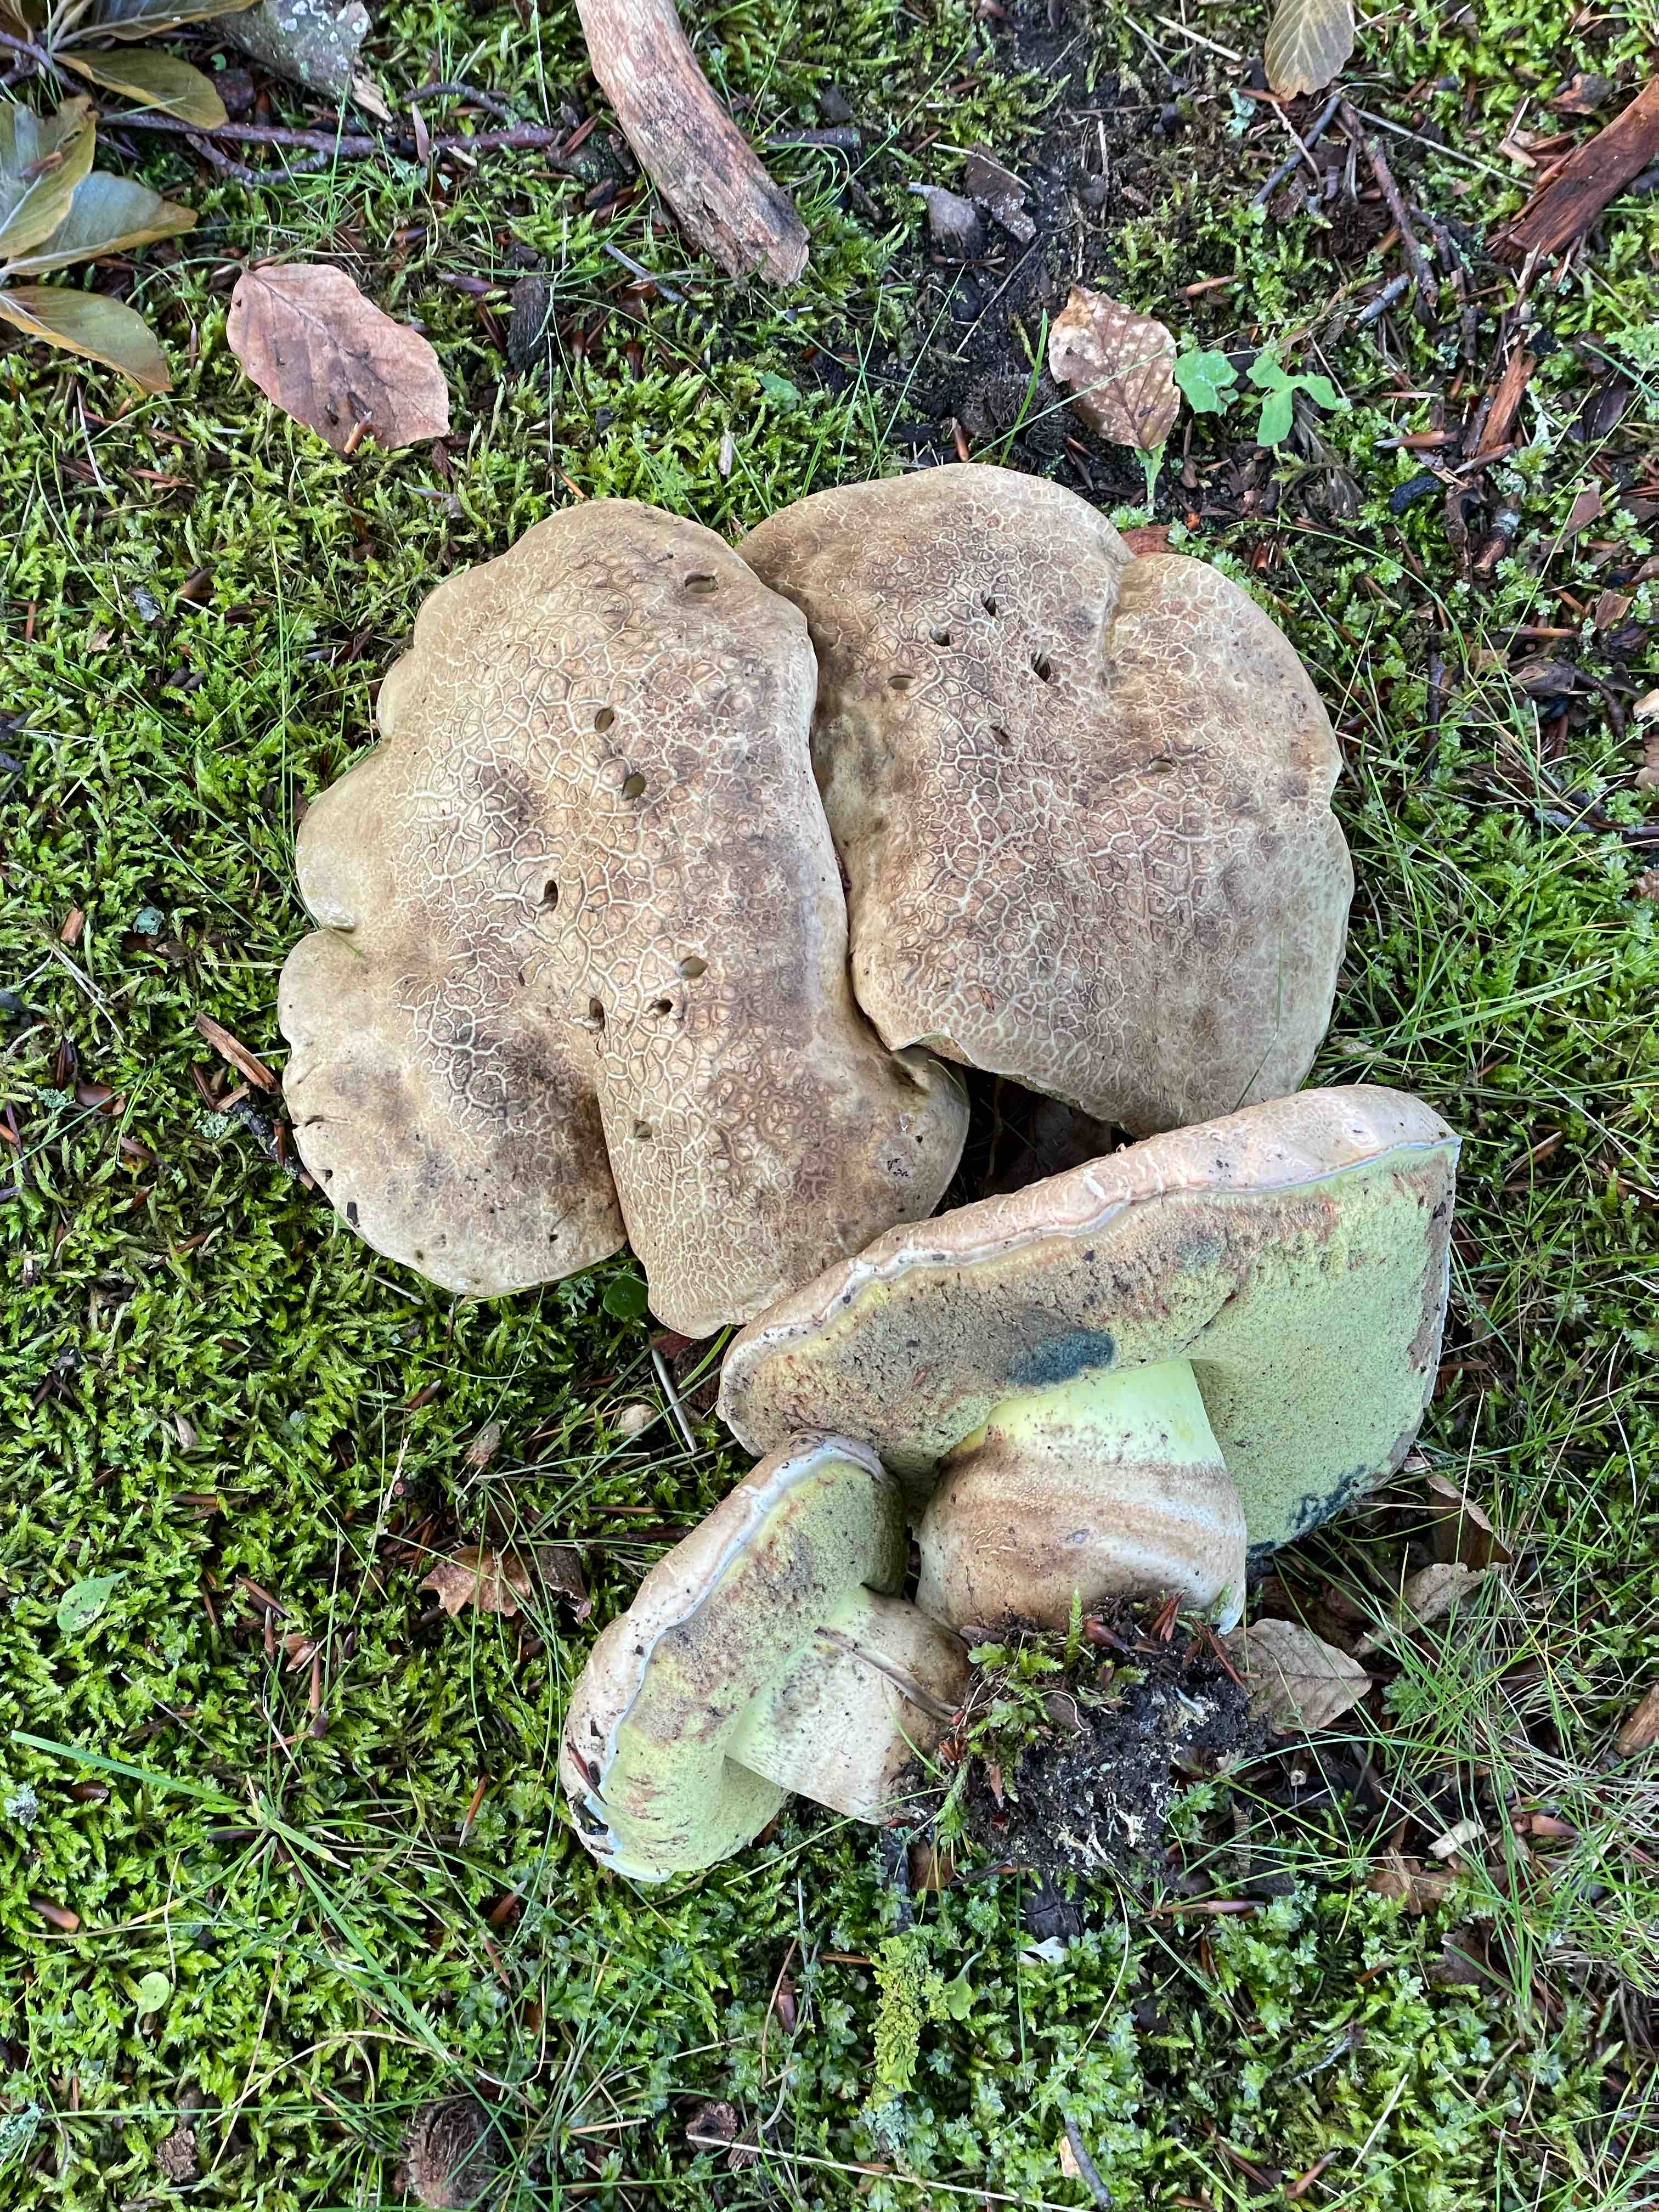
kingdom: Fungi
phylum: Basidiomycota
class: Agaricomycetes
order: Boletales
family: Boletaceae
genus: Caloboletus
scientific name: Caloboletus radicans
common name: rod-rørhat
